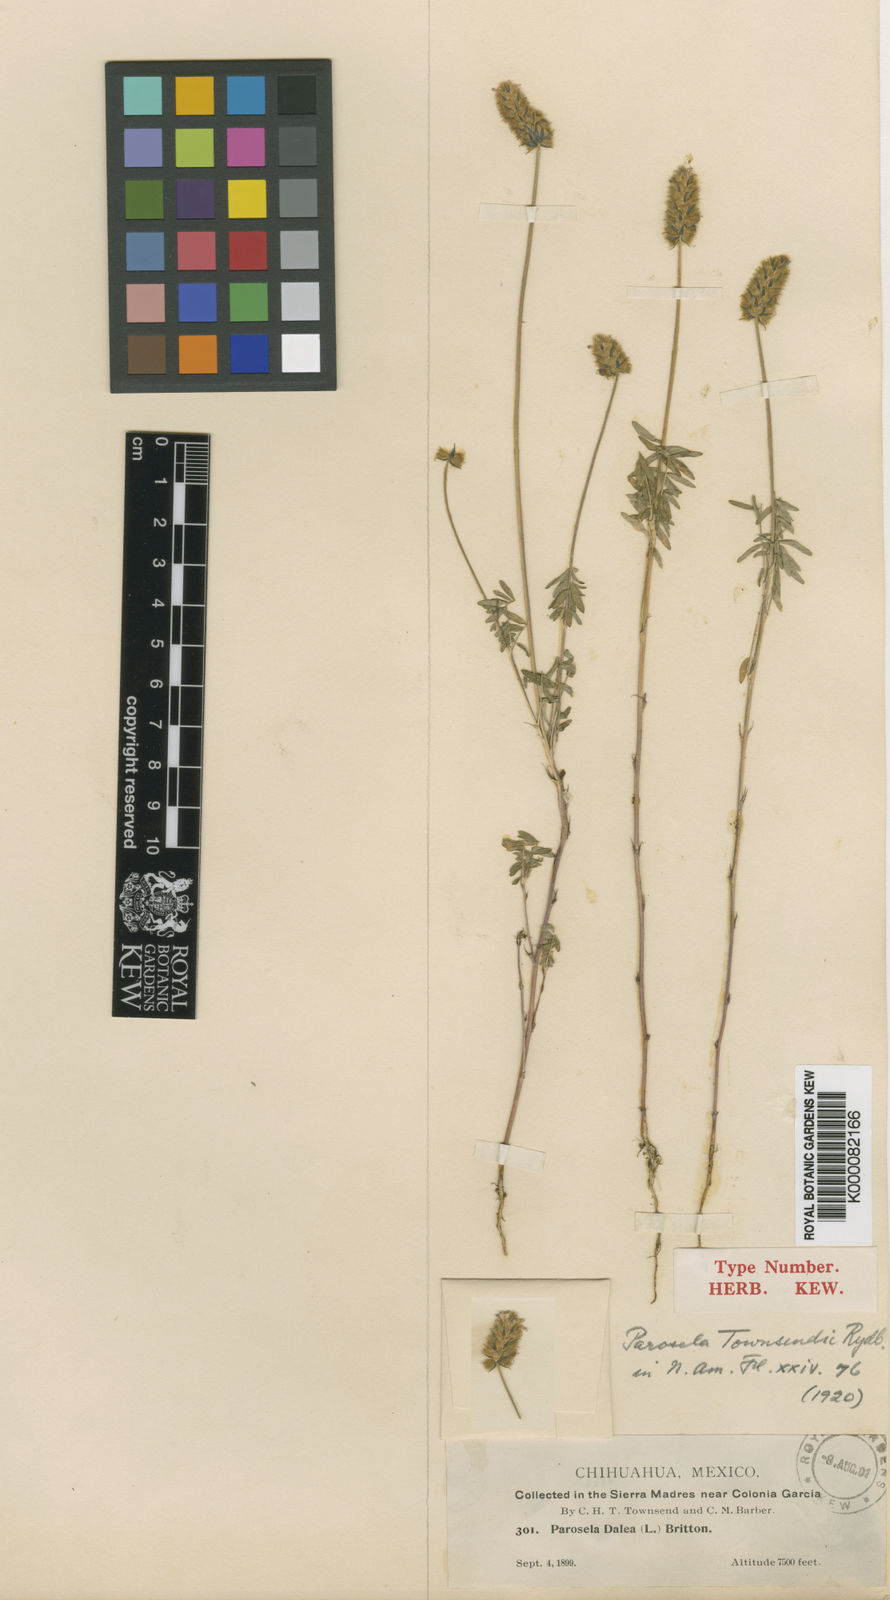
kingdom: Plantae
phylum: Tracheophyta
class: Magnoliopsida
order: Fabales
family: Fabaceae
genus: Dalea
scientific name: Dalea reclinata
